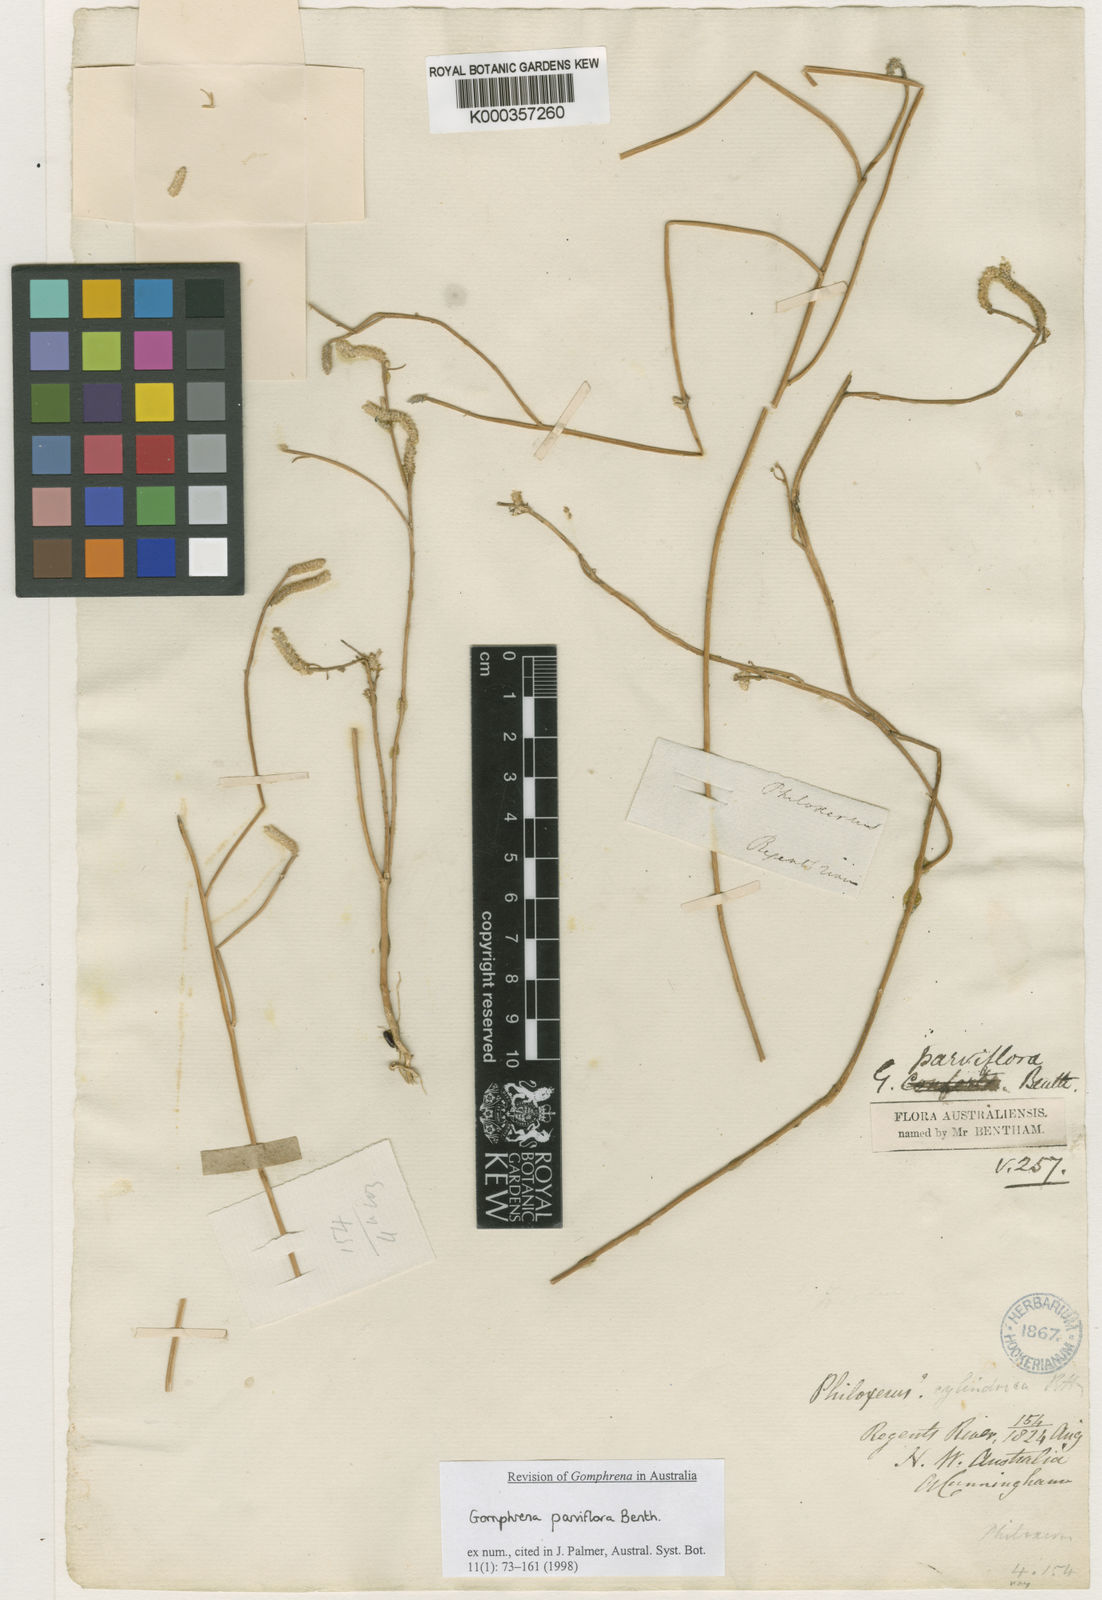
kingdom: Plantae
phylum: Tracheophyta
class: Magnoliopsida
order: Caryophyllales
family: Amaranthaceae
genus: Gomphrena
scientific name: Gomphrena parviflora
